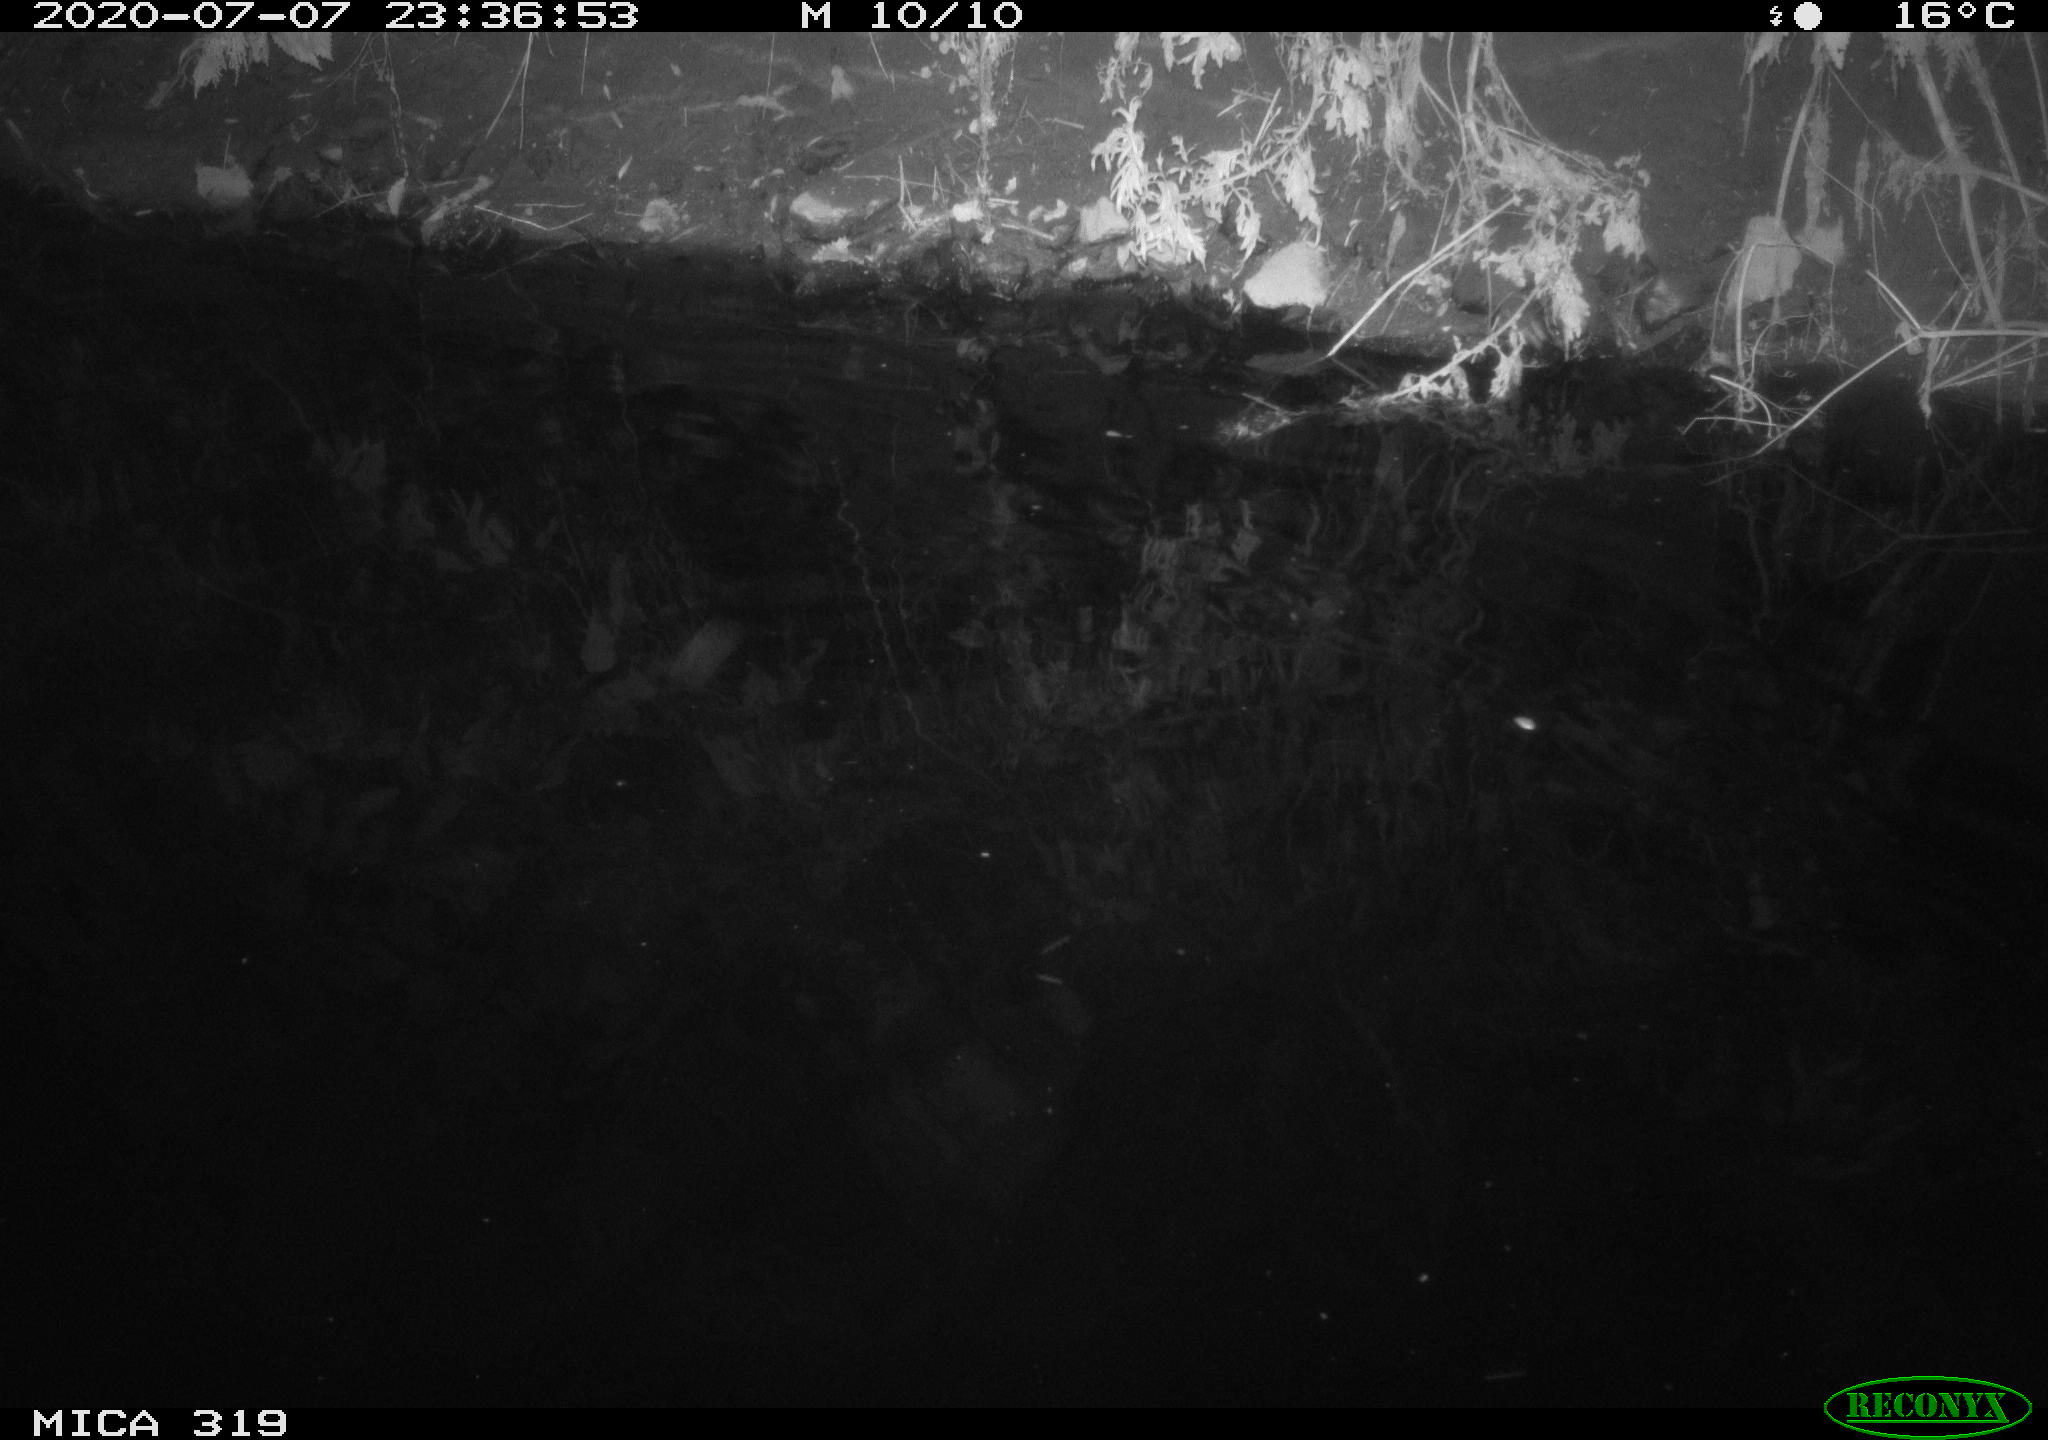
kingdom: Animalia
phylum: Chordata
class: Aves
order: Anseriformes
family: Anatidae
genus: Mareca
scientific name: Mareca strepera
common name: Gadwall
